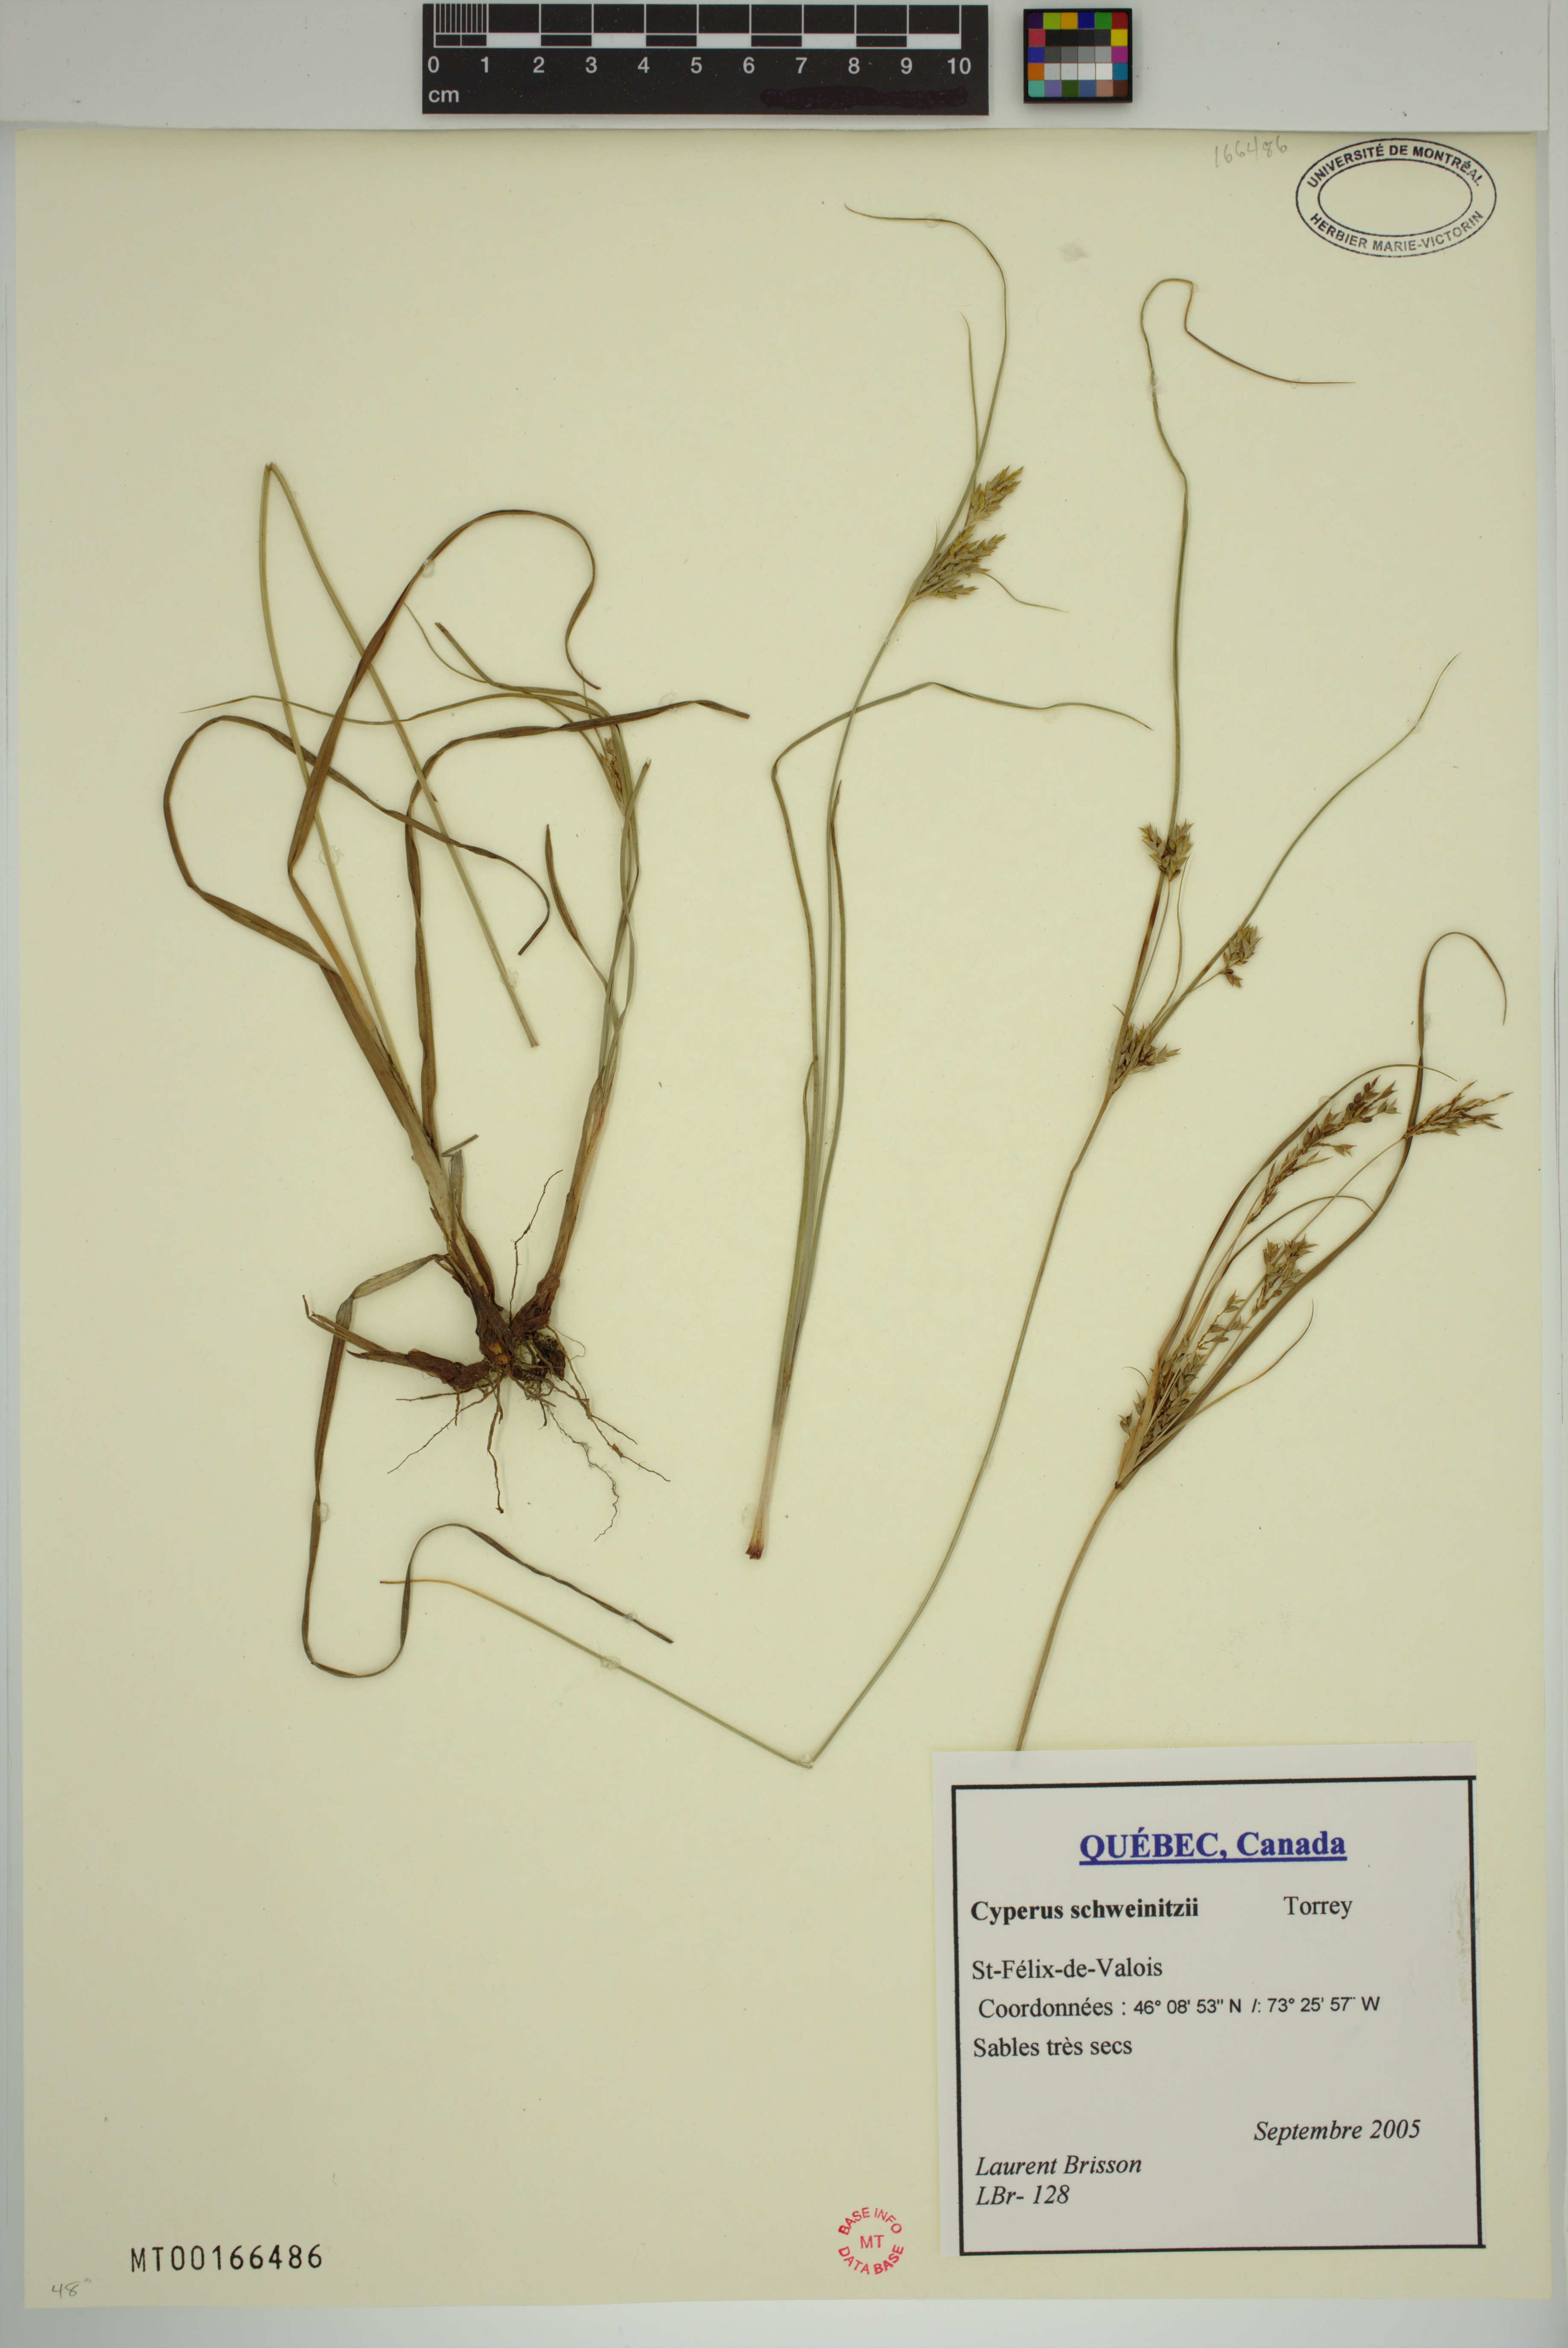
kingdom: Plantae
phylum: Tracheophyta
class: Liliopsida
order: Poales
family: Cyperaceae
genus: Cyperus
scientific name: Cyperus schweinitzii
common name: Schweinitz's cyperus
